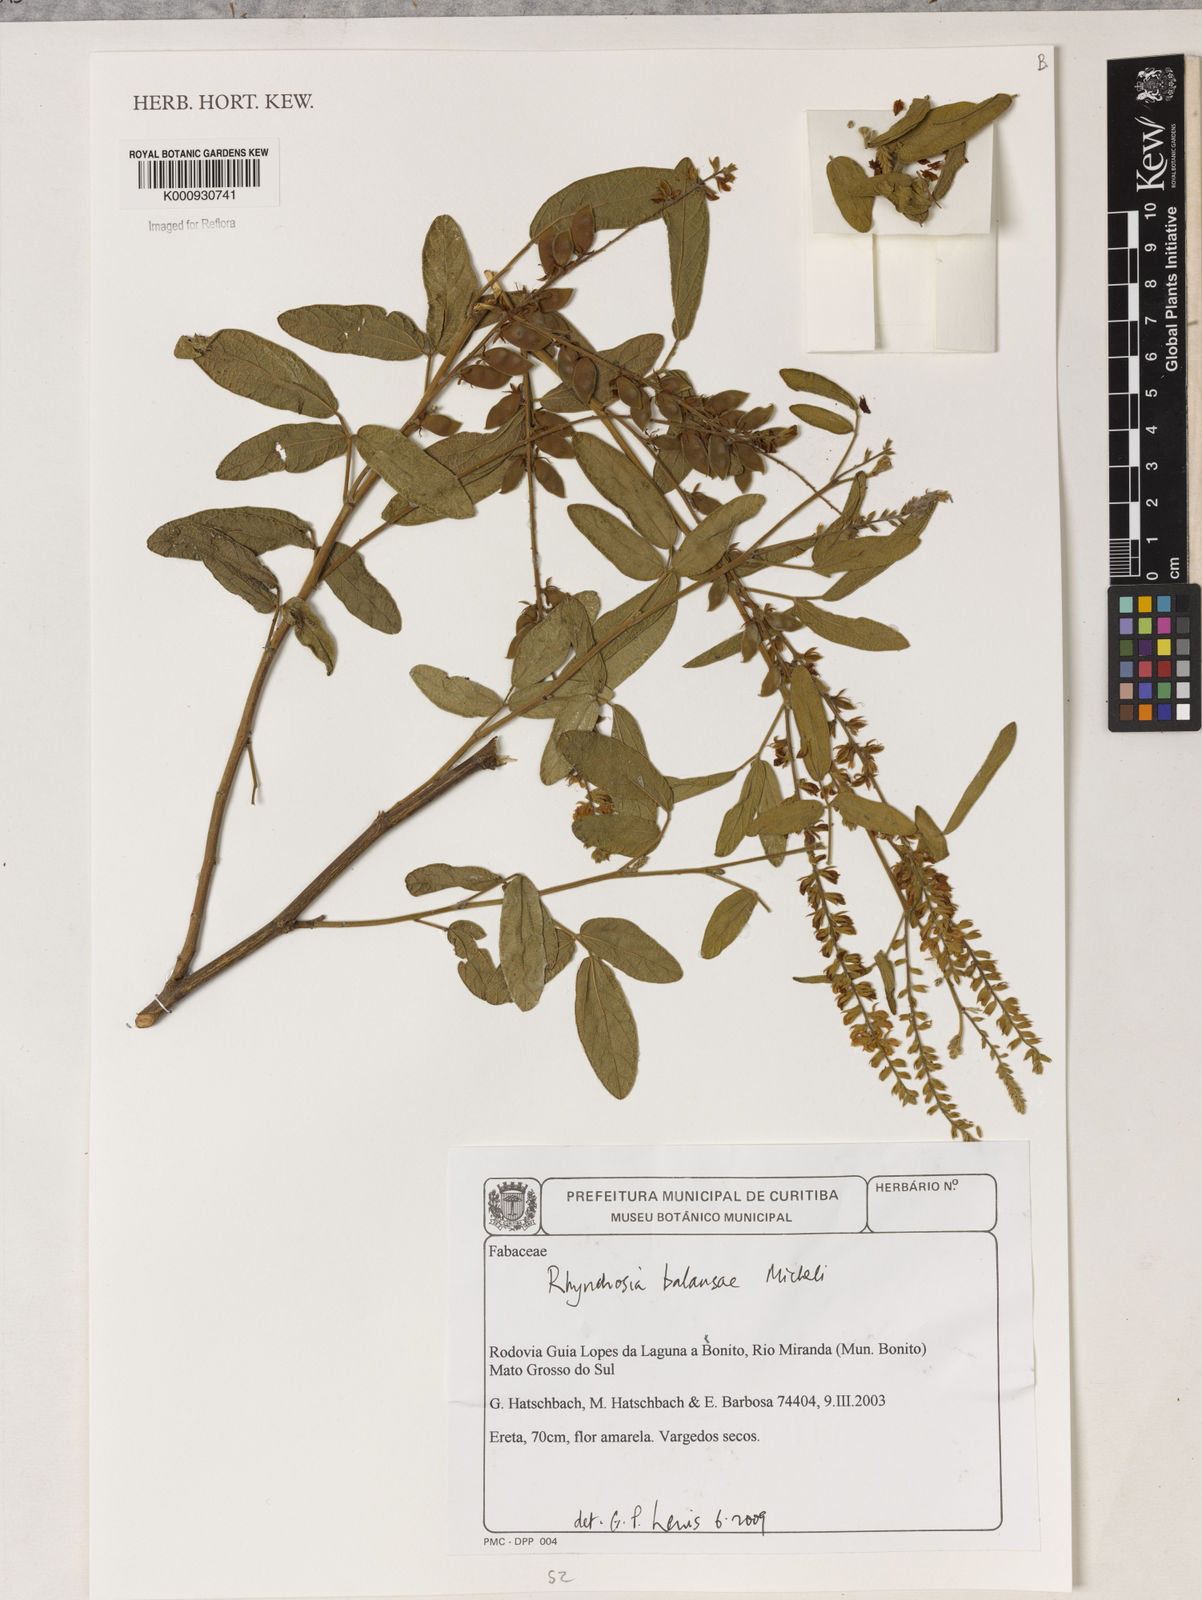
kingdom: Plantae
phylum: Tracheophyta
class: Magnoliopsida
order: Fabales
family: Fabaceae
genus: Rhynchosia
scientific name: Rhynchosia balansae
